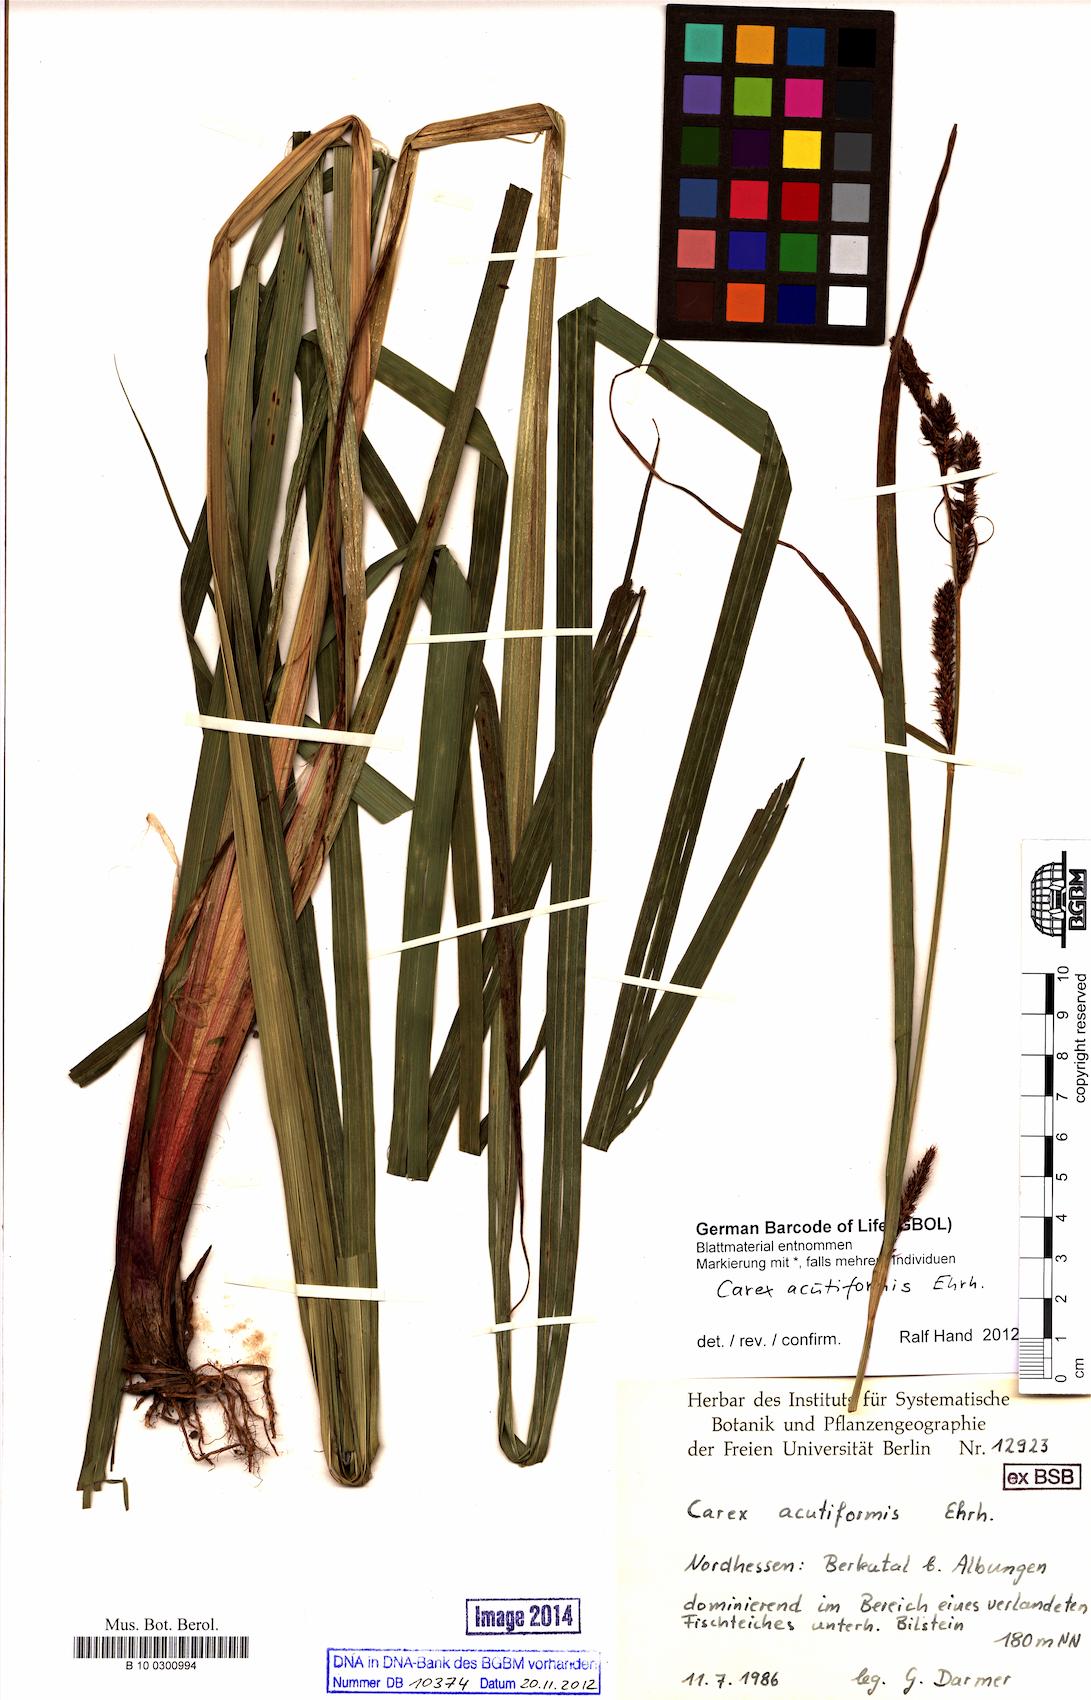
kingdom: Plantae
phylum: Tracheophyta
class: Liliopsida
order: Poales
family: Cyperaceae
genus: Carex
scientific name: Carex acutiformis
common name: Lesser pond-sedge
